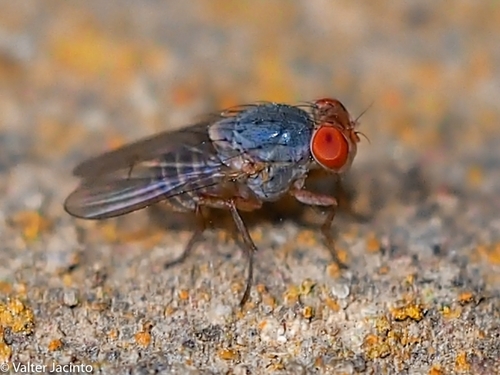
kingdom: Animalia
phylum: Arthropoda
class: Insecta
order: Diptera
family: Lauxaniidae
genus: Prosopomyia
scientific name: Prosopomyia pallida
